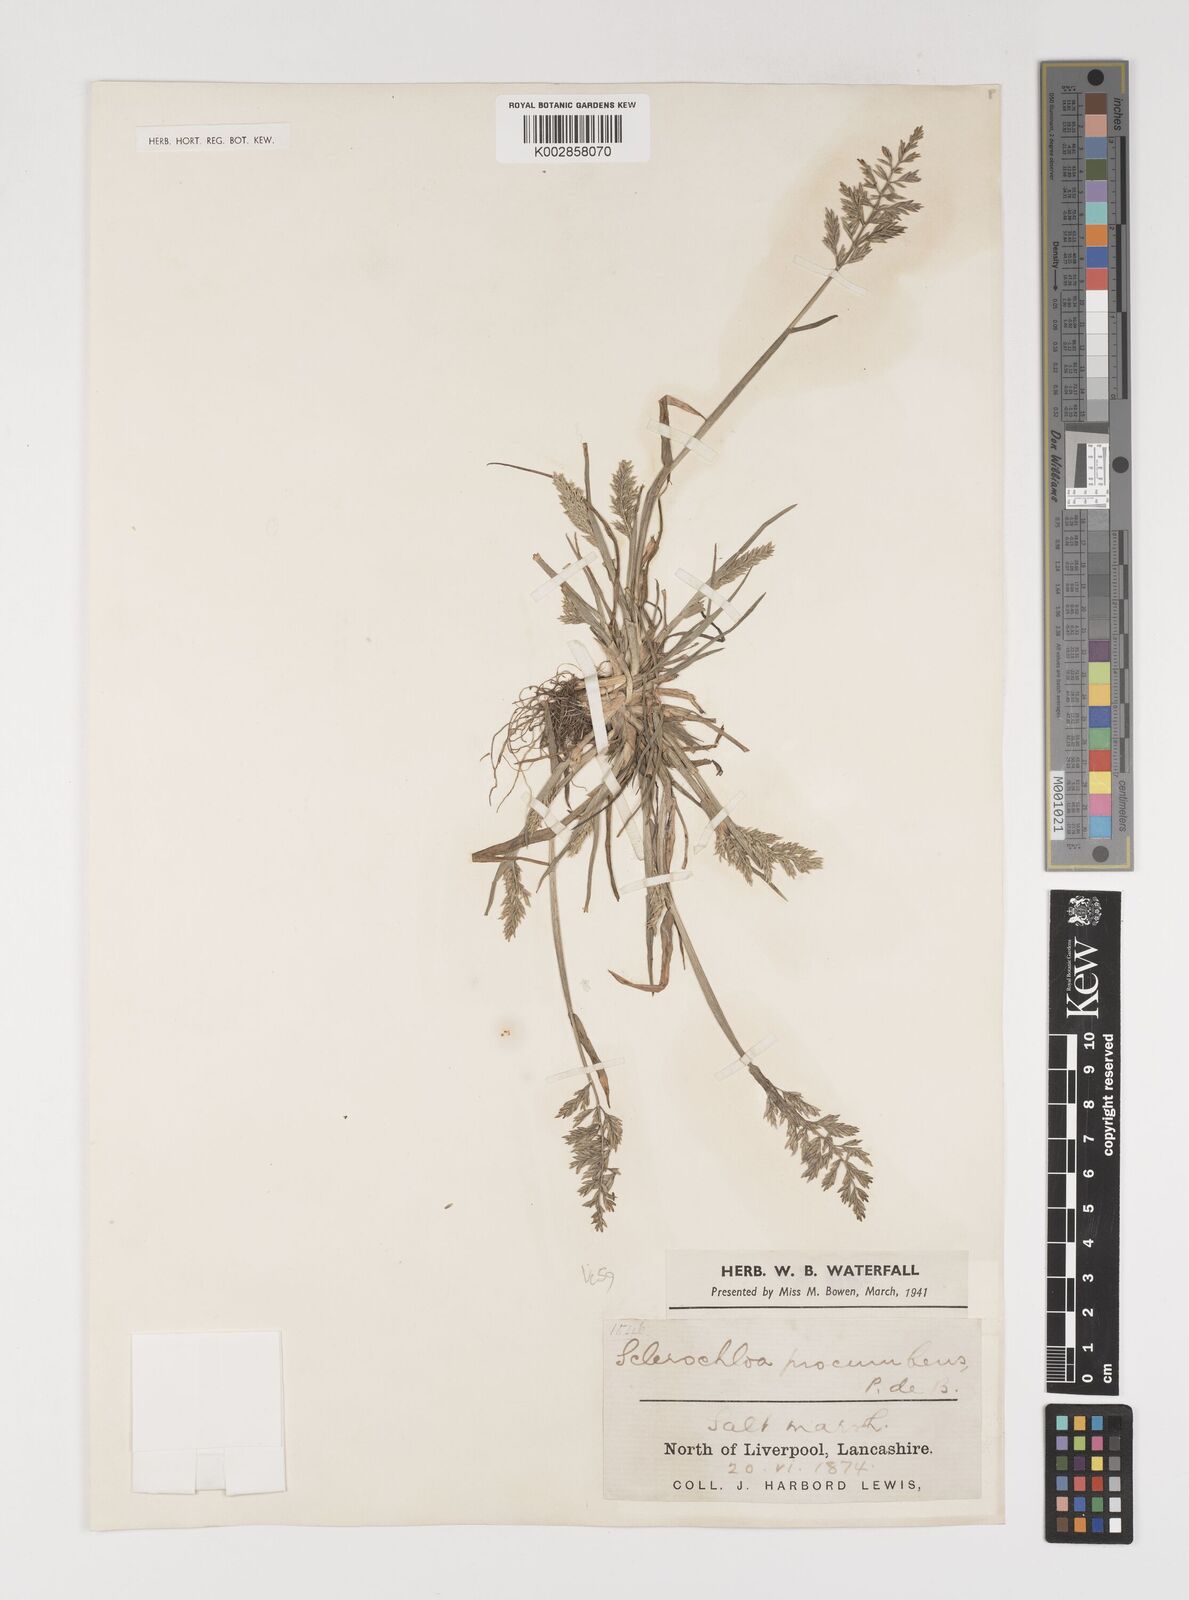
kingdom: Plantae
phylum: Tracheophyta
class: Liliopsida
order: Poales
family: Poaceae
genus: Puccinellia
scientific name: Puccinellia rupestris
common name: Stiff saltmarsh-grass
